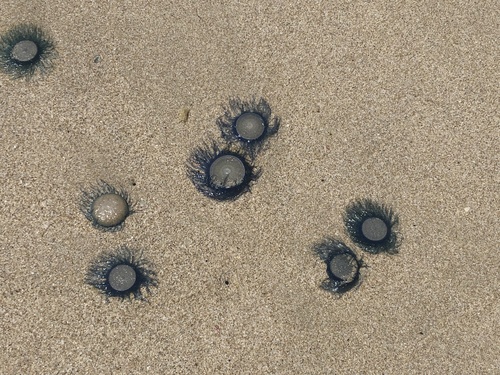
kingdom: Animalia
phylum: Cnidaria
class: Hydrozoa
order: Anthoathecata
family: Porpitidae
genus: Porpita
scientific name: Porpita porpita
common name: Blue Button
